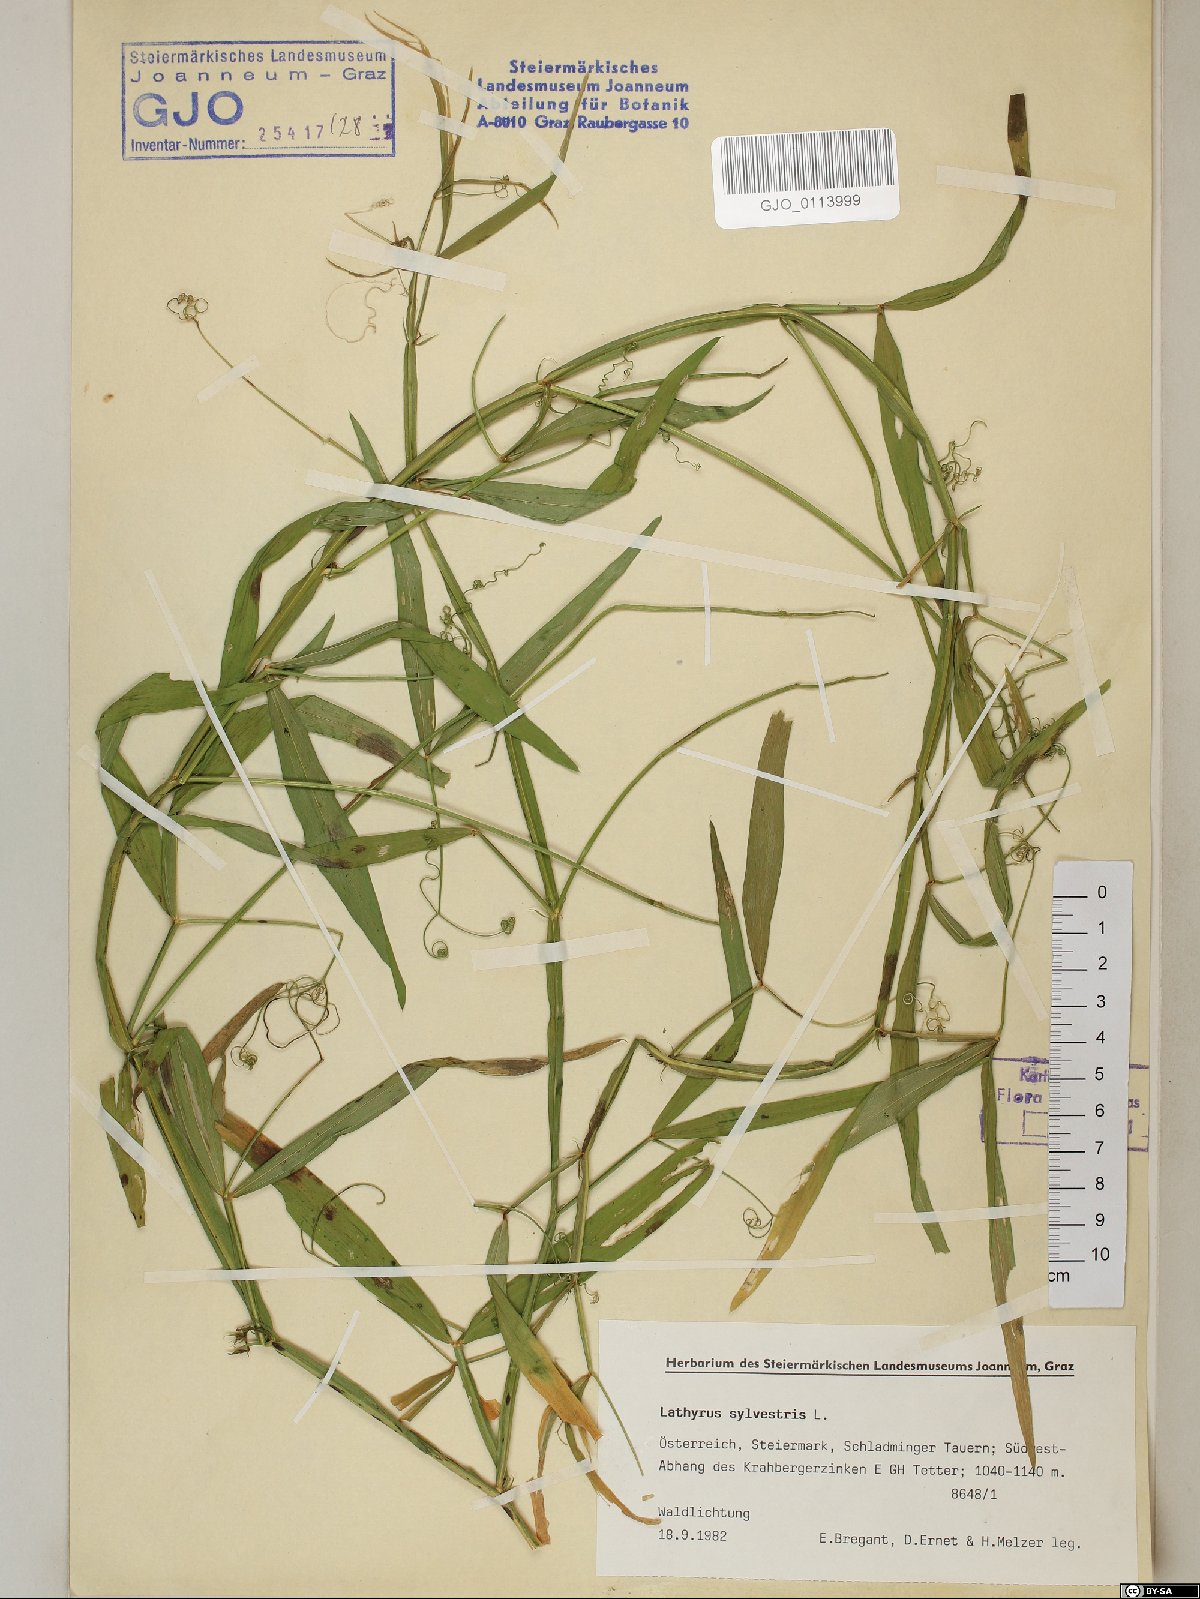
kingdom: Plantae
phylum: Tracheophyta
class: Magnoliopsida
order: Fabales
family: Fabaceae
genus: Lathyrus
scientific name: Lathyrus sylvestris
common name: Flat pea
